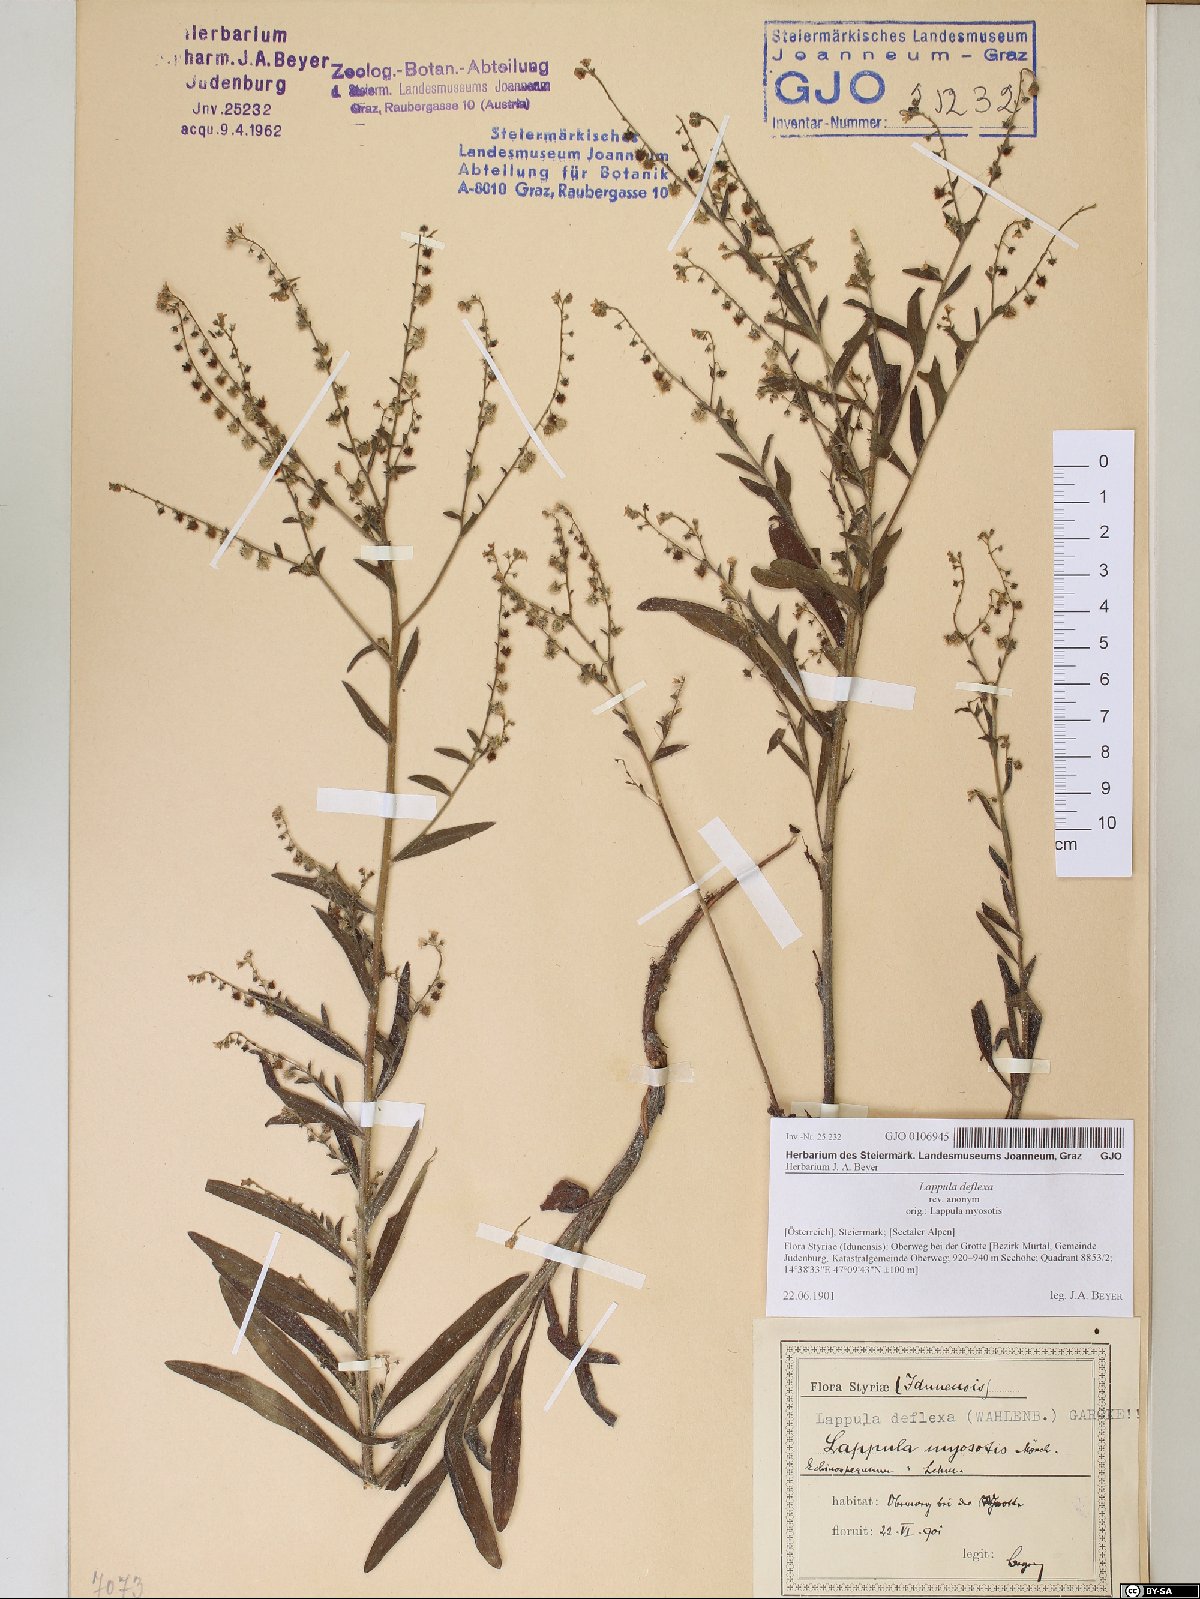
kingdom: Plantae
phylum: Tracheophyta
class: Magnoliopsida
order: Boraginales
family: Boraginaceae
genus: Hackelia
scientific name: Hackelia deflexa
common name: Nodding stickseed
